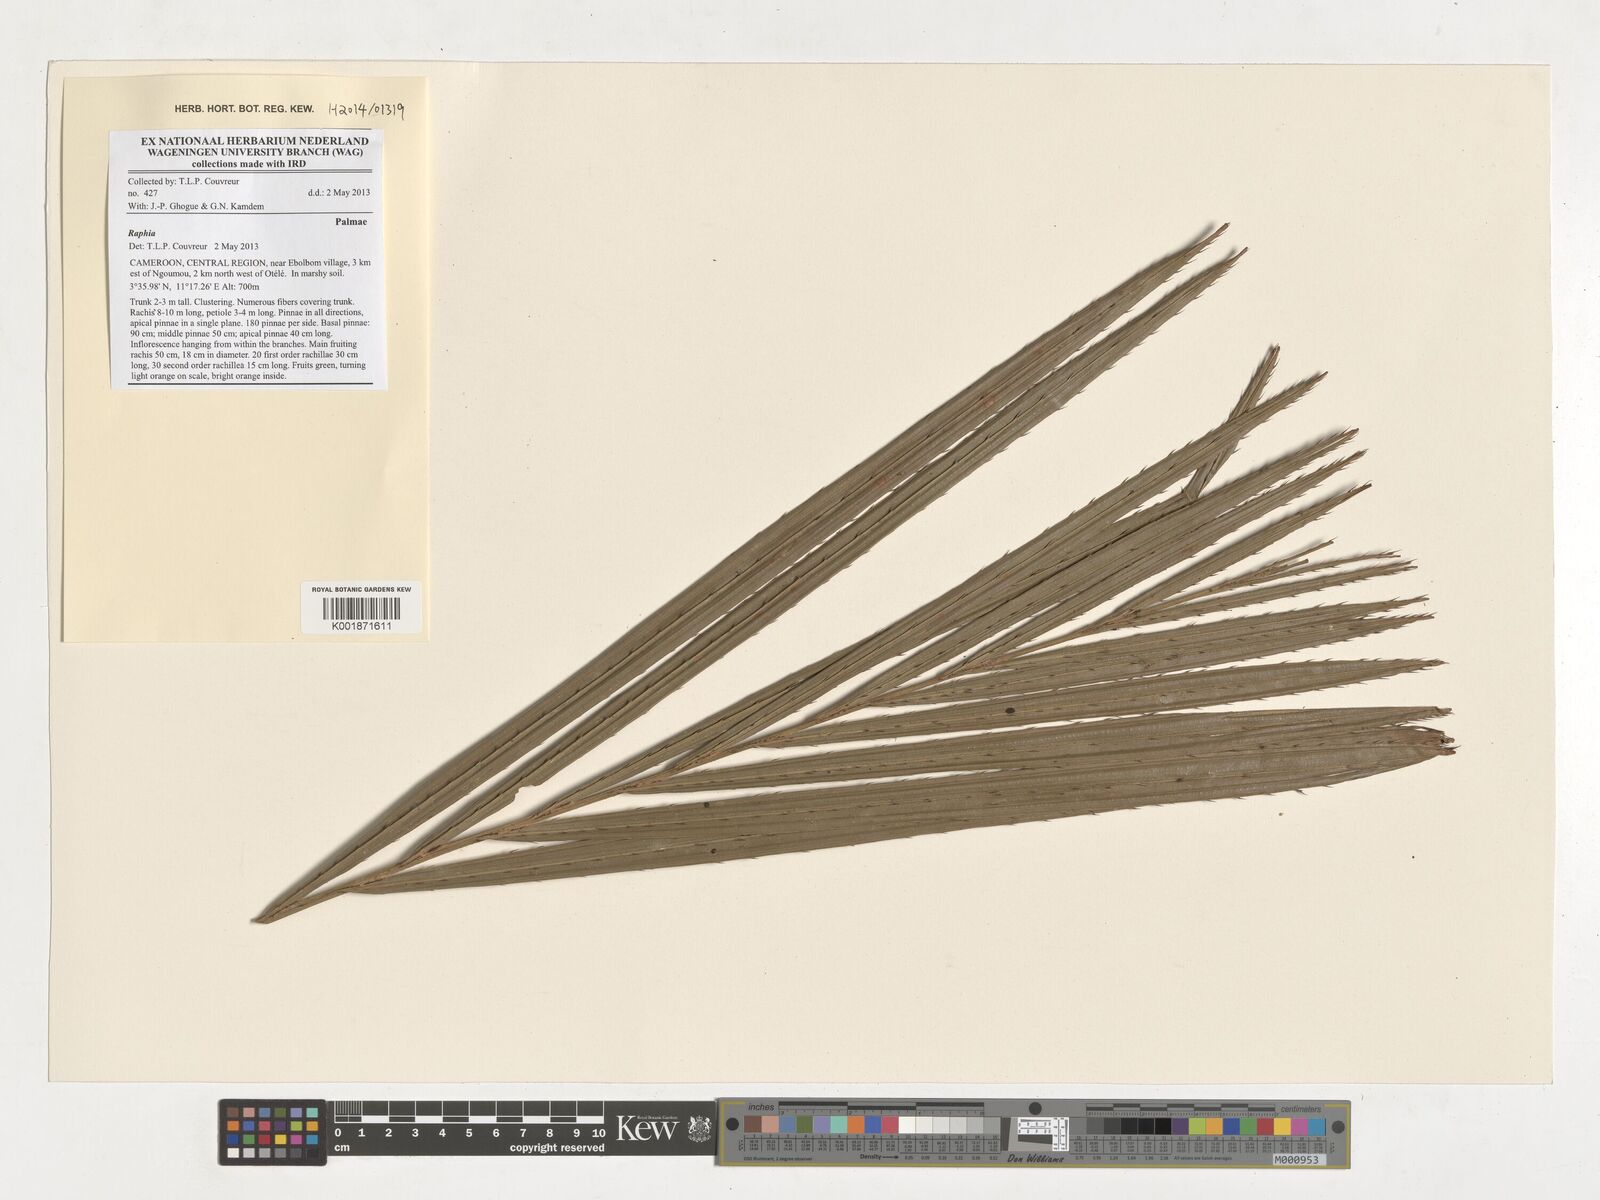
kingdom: Plantae
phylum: Tracheophyta
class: Liliopsida
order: Arecales
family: Arecaceae
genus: Raphia
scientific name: Raphia
